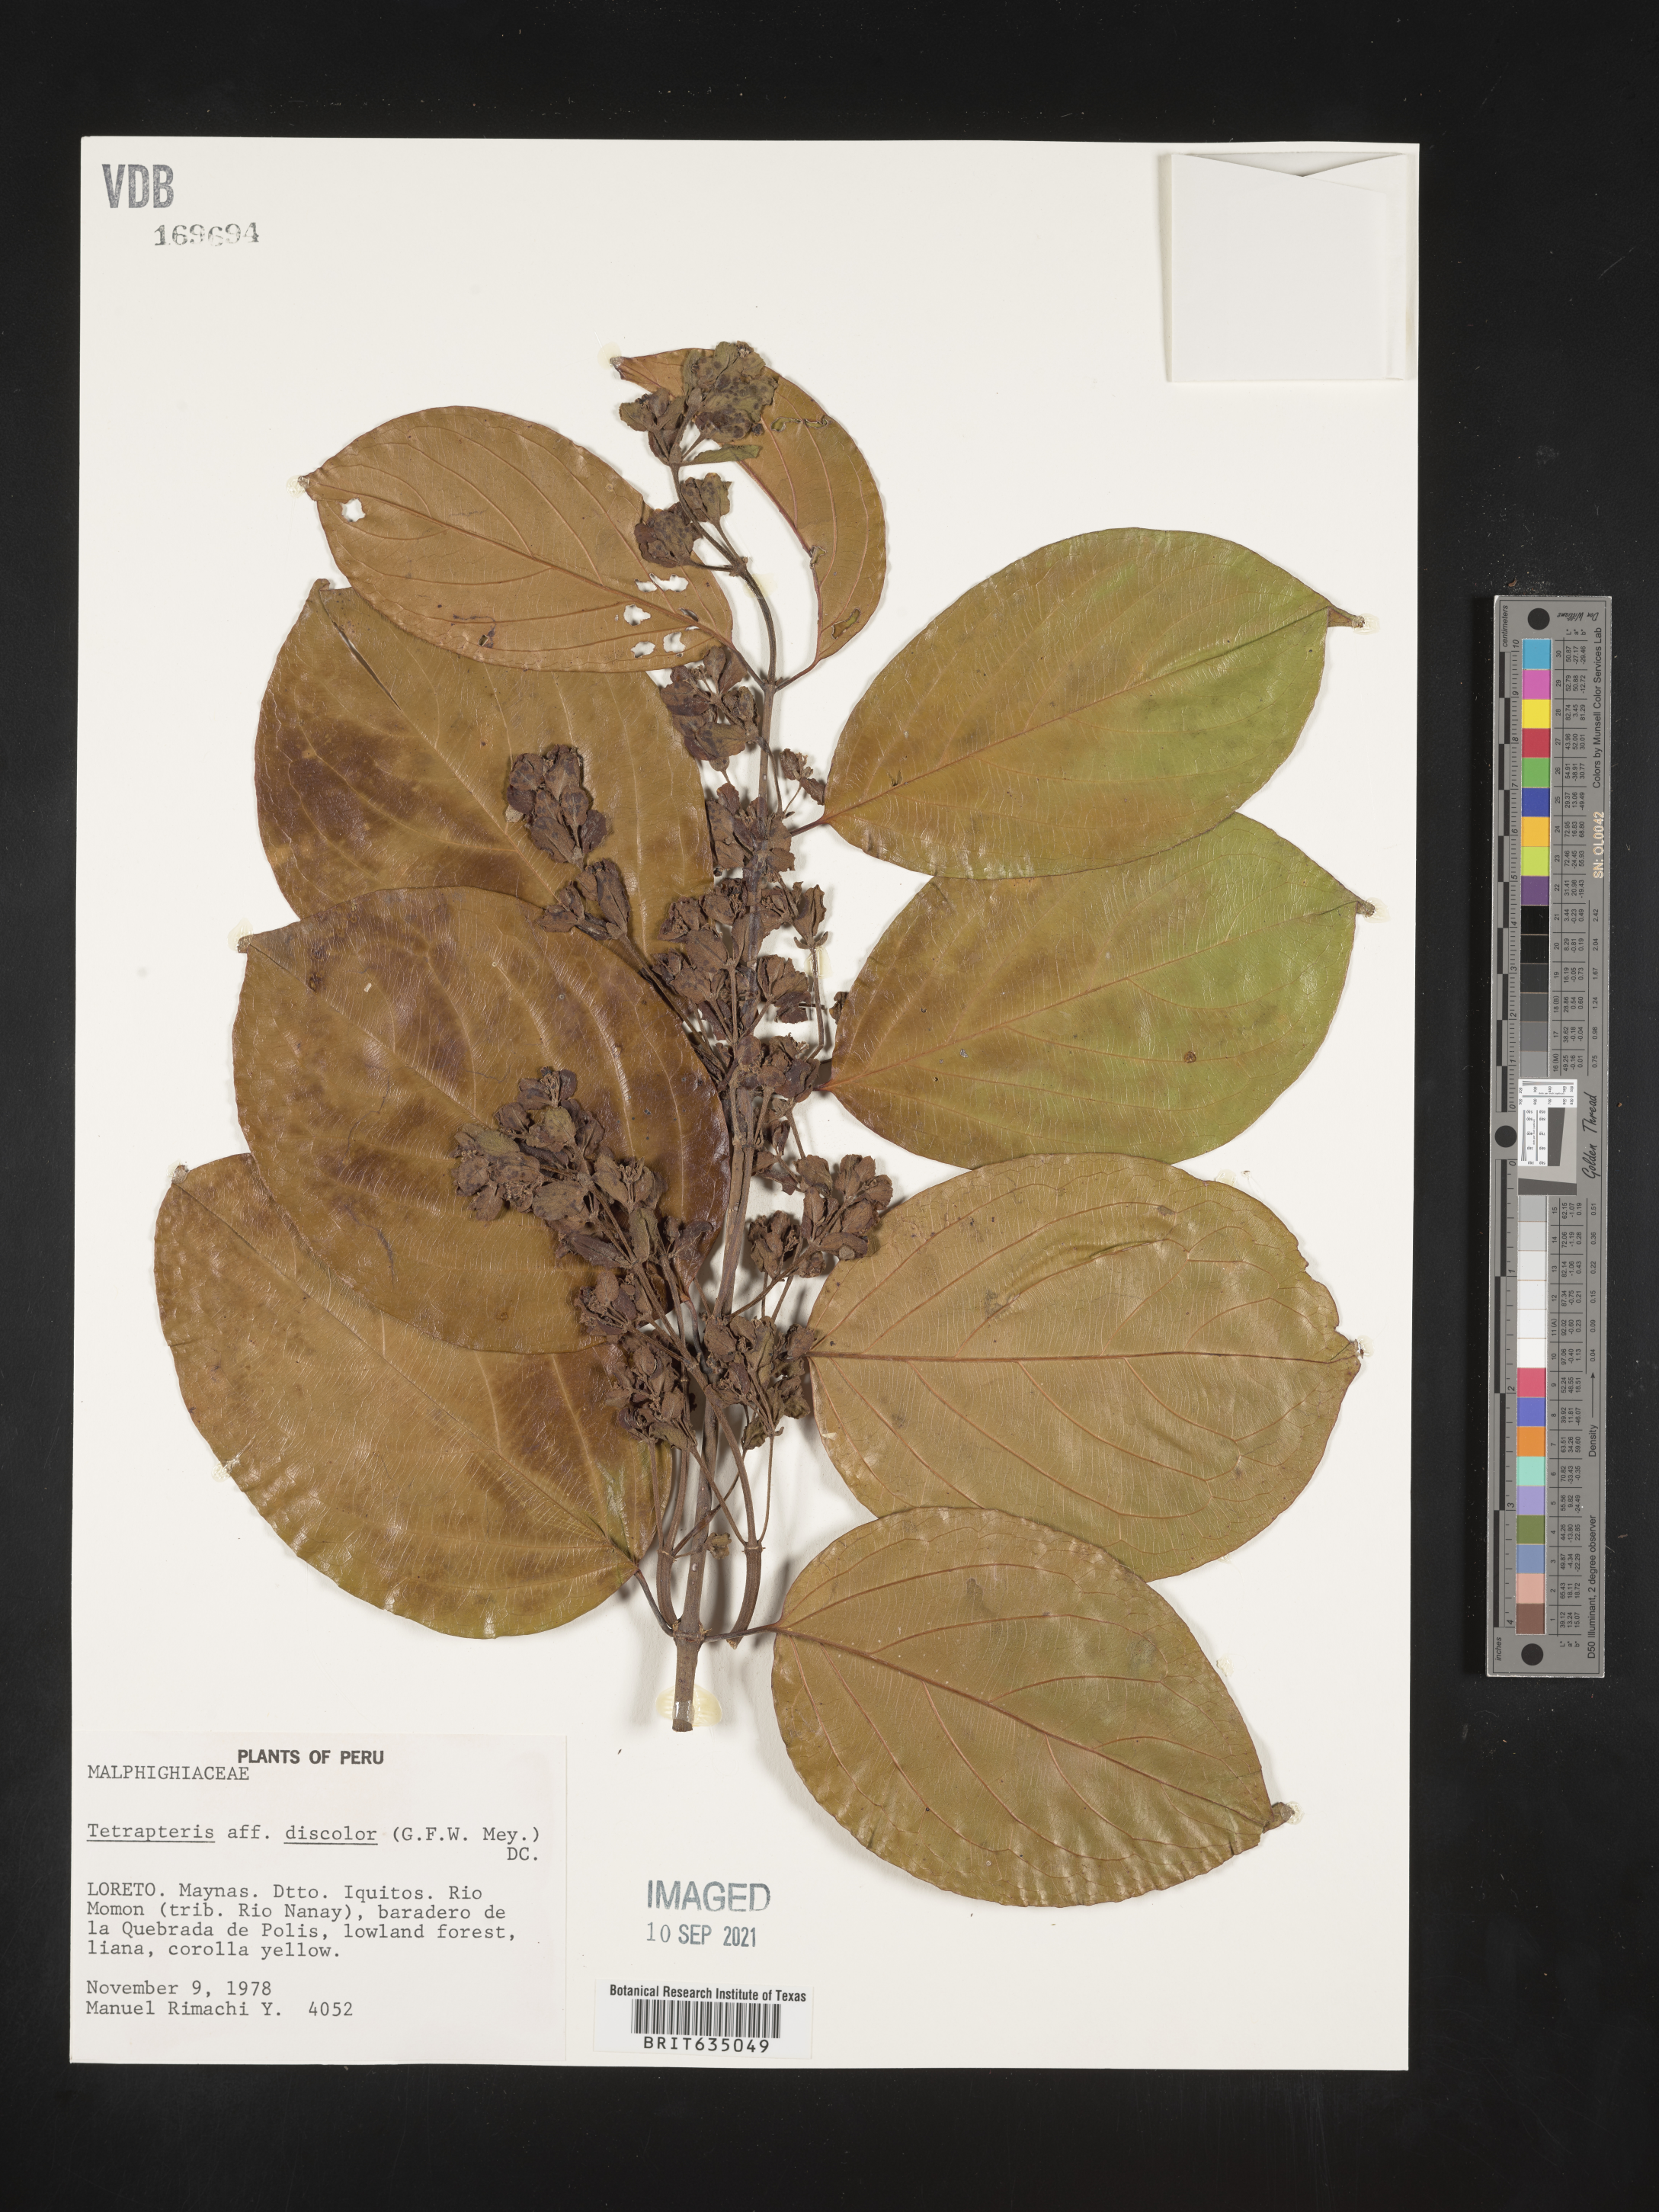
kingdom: Plantae
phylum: Tracheophyta
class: Magnoliopsida
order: Ericales
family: Styracaceae
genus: Tetrapteris
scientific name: Tetrapteris
